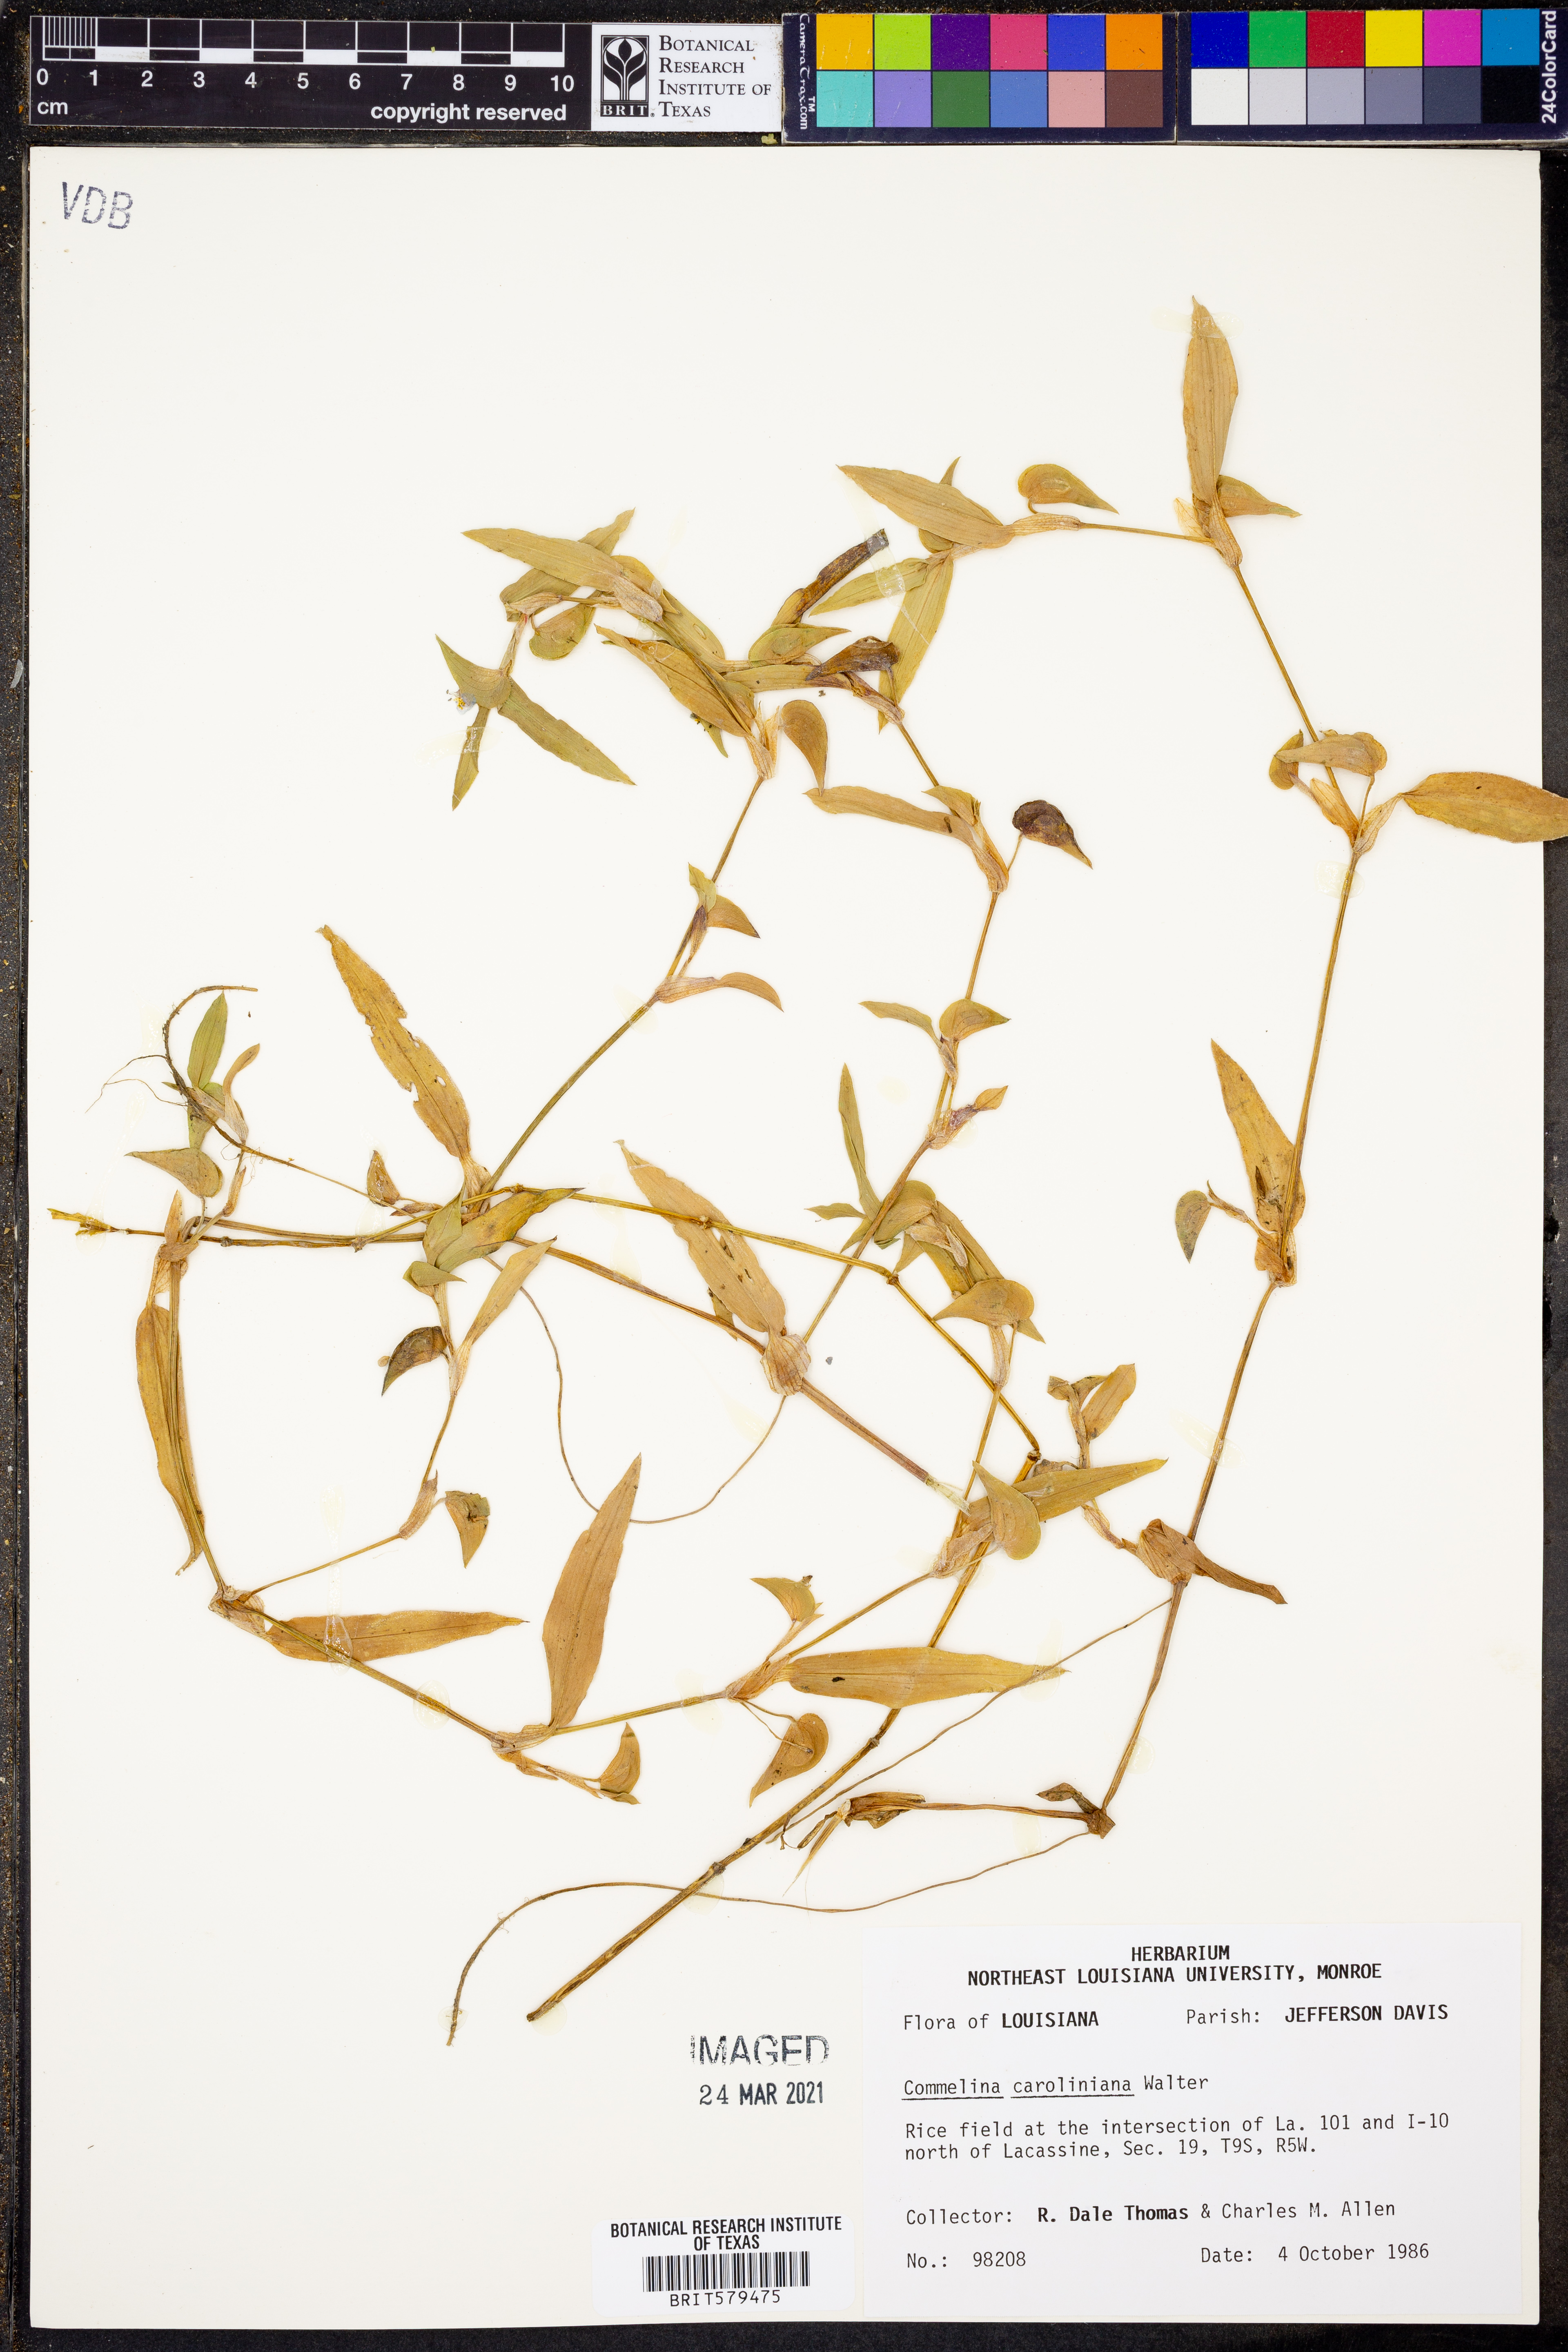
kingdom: Plantae
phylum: Tracheophyta
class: Liliopsida
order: Commelinales
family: Commelinaceae
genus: Commelina
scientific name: Commelina caroliniana
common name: Carolina dayflower
